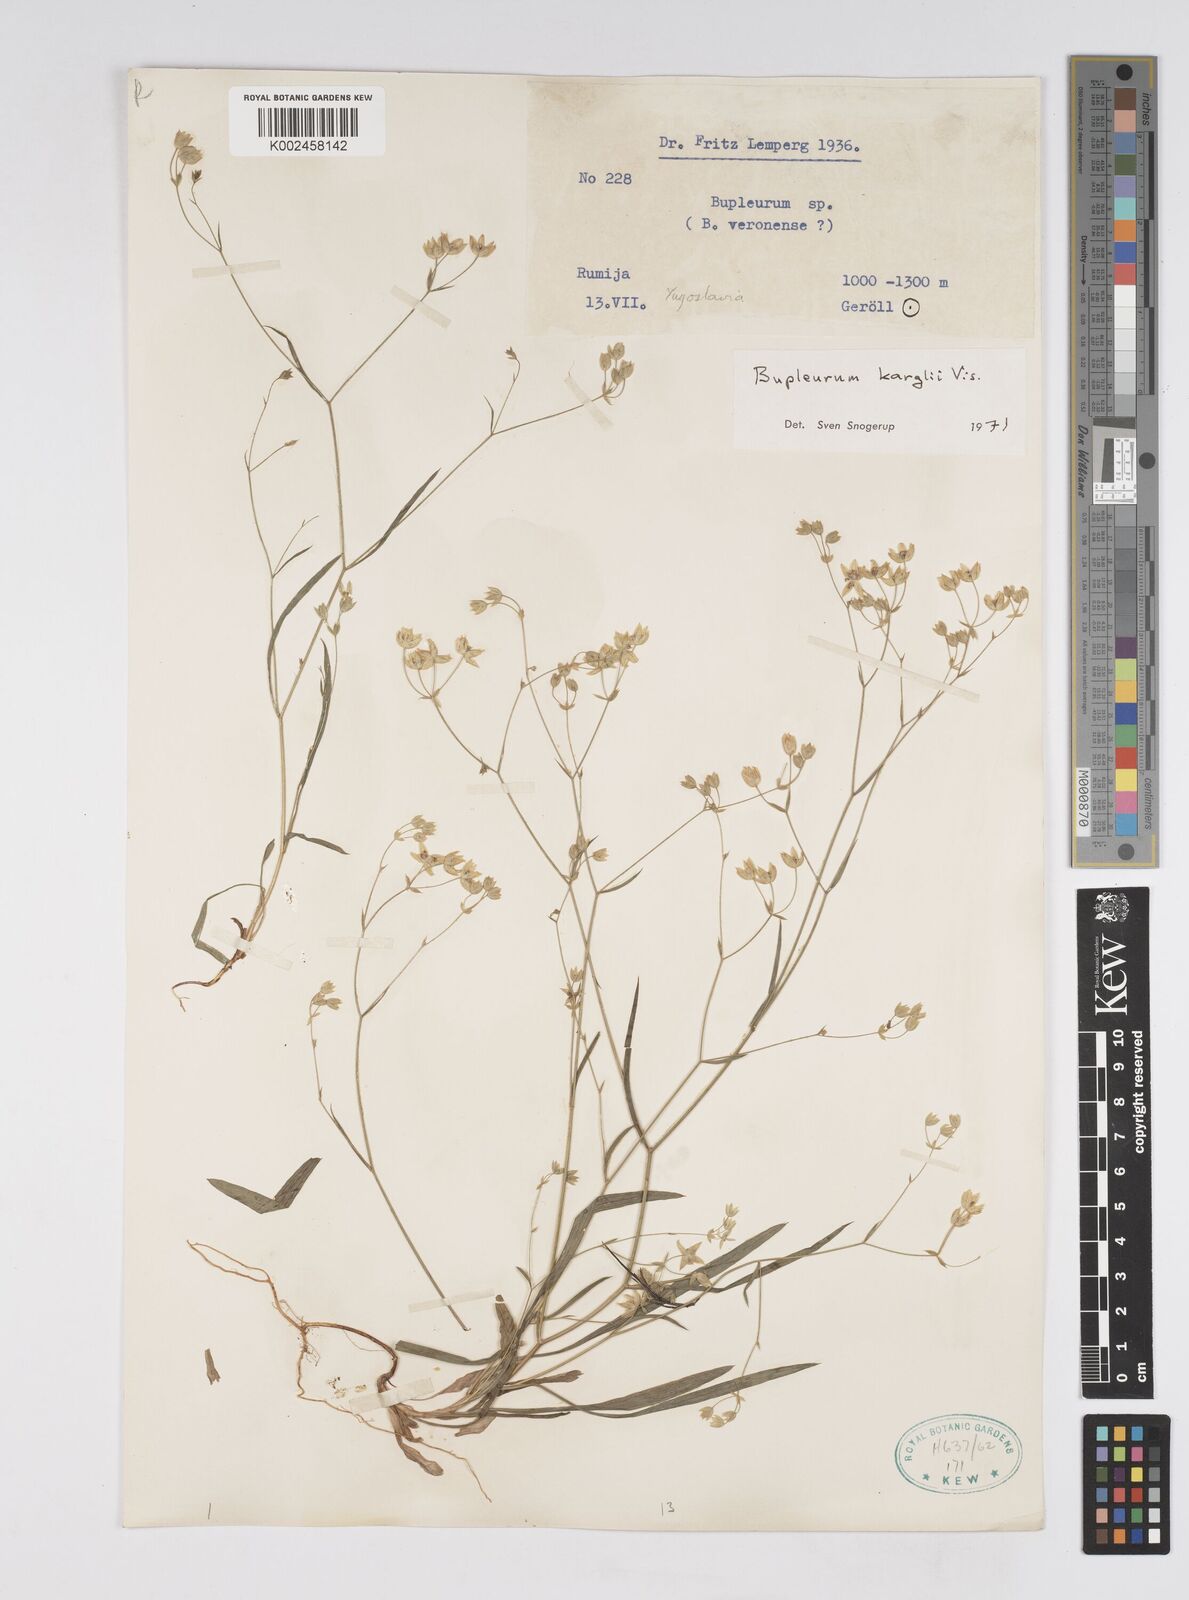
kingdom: Plantae
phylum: Tracheophyta
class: Magnoliopsida
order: Apiales
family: Apiaceae
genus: Bupleurum
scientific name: Bupleurum karglii
